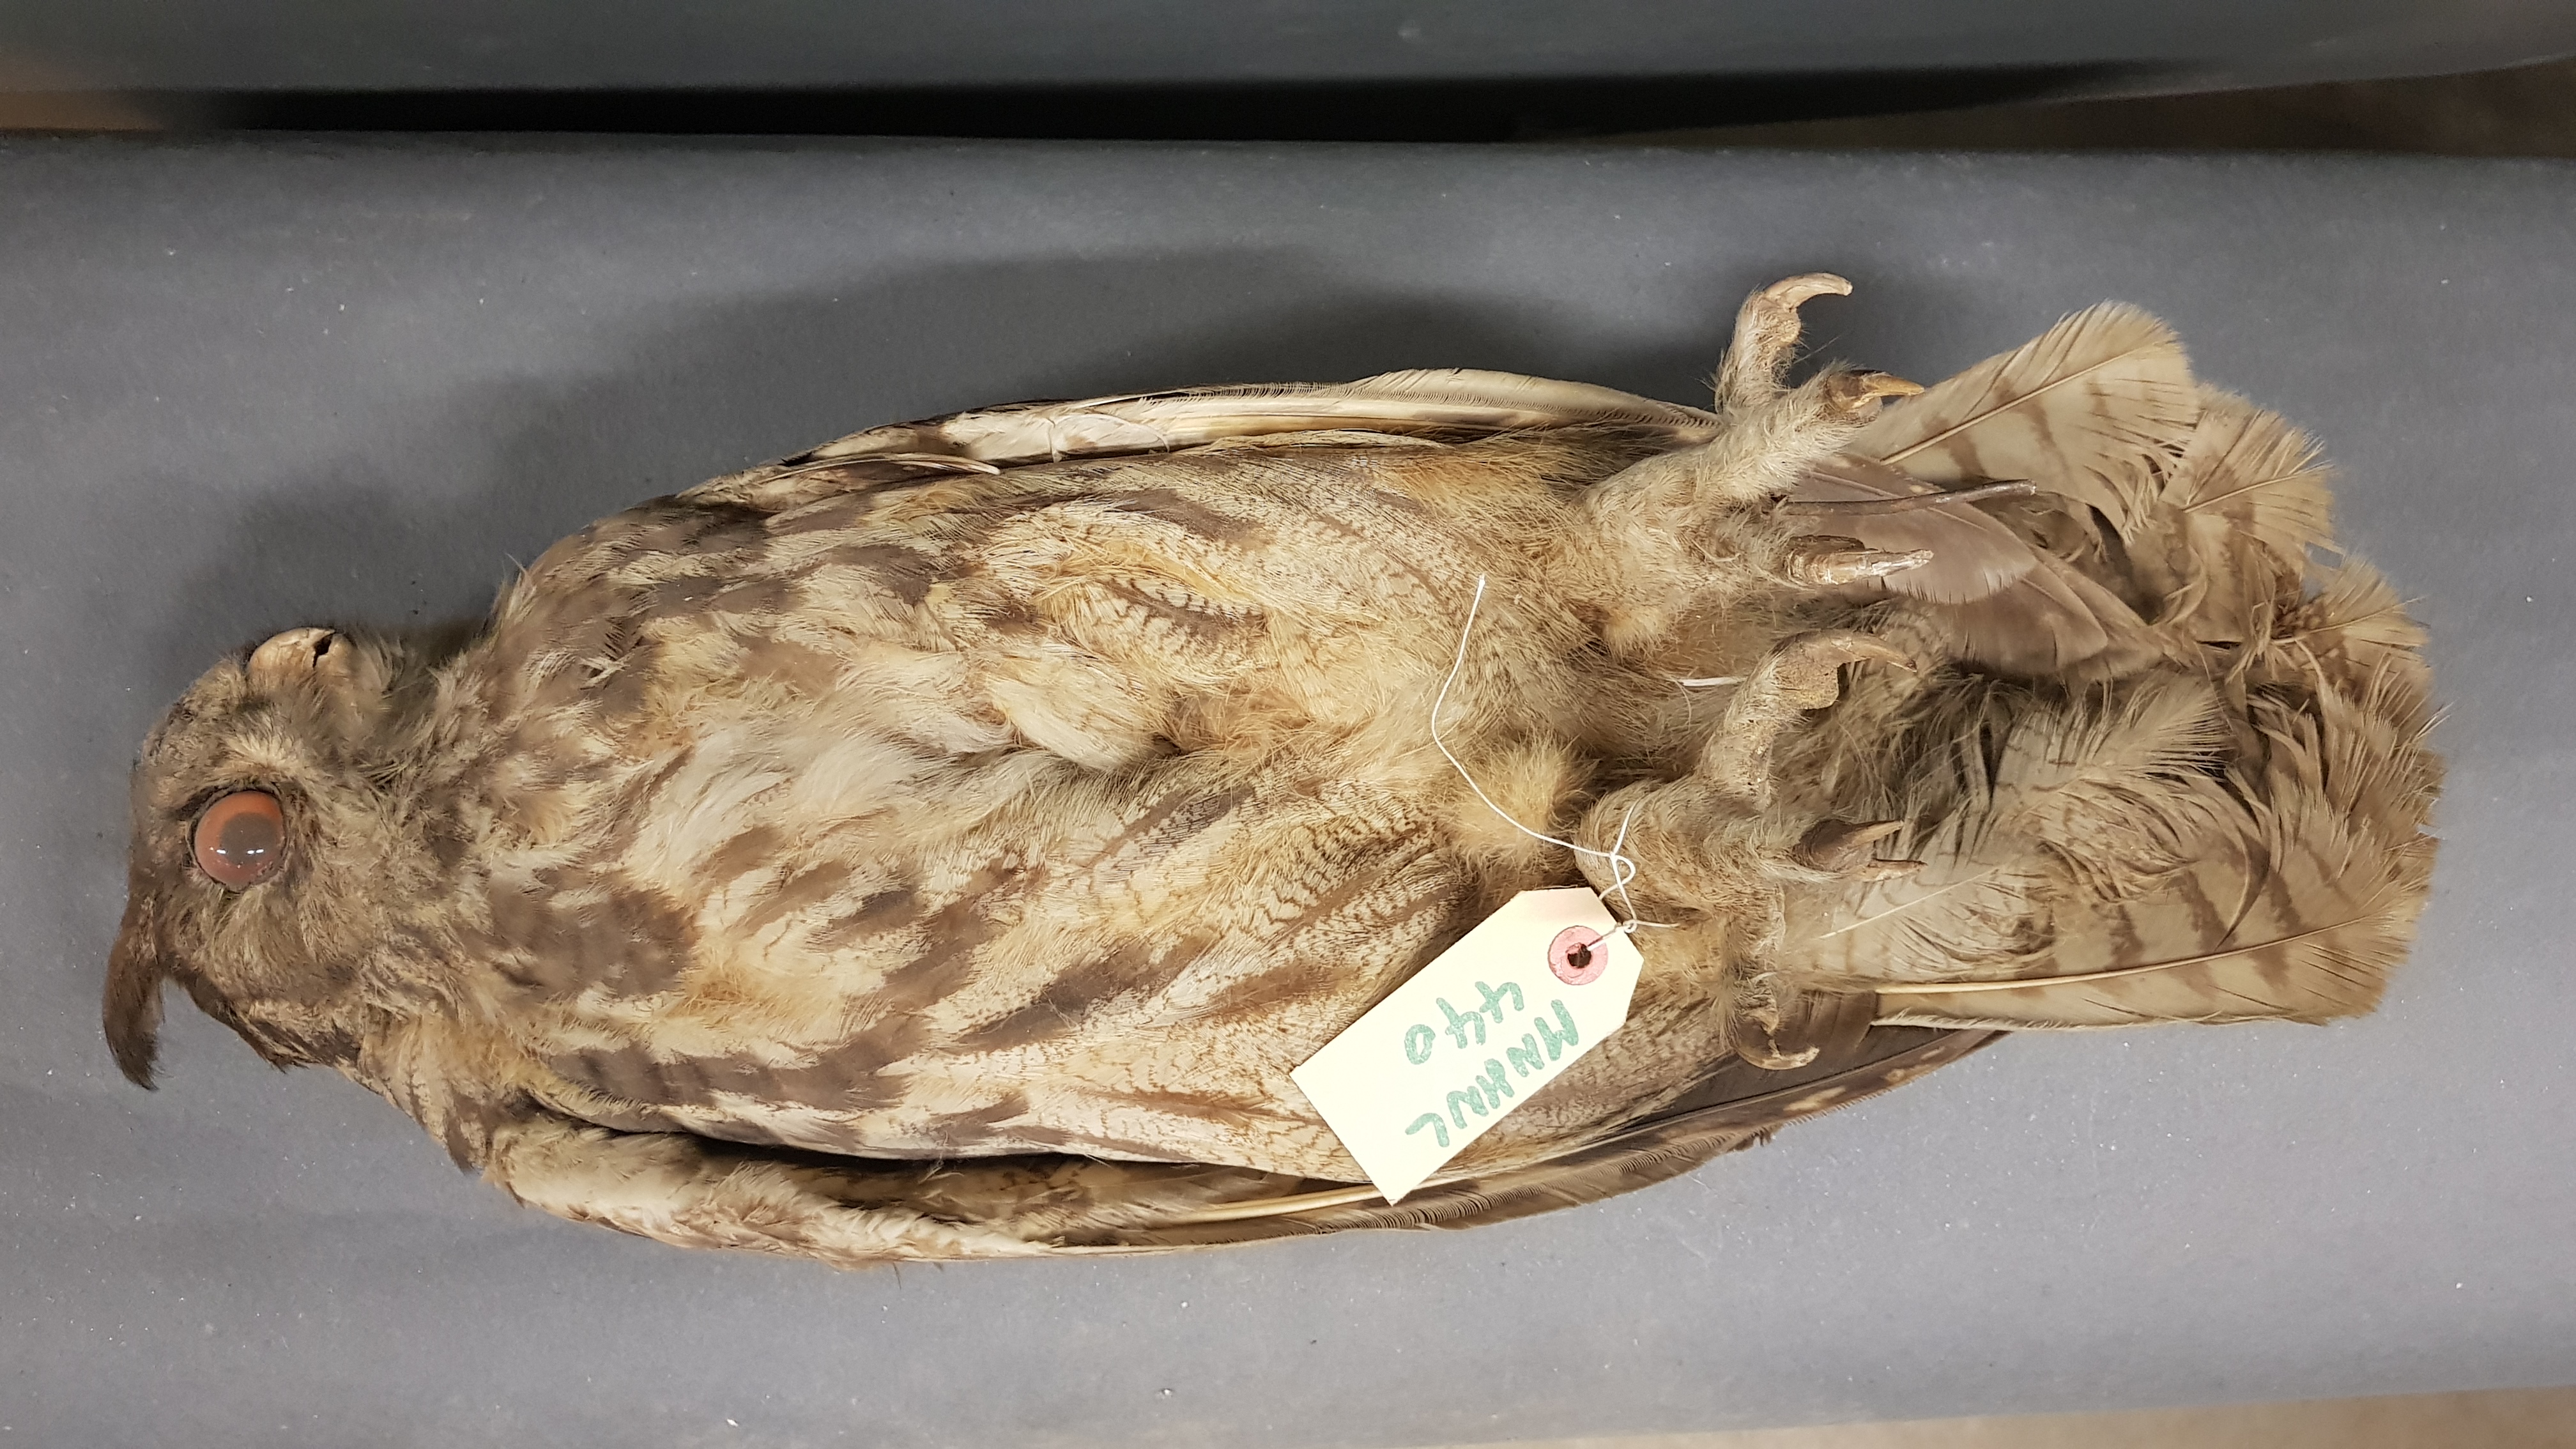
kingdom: Animalia
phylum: Chordata
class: Aves
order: Strigiformes
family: Strigidae
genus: Bubo
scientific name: Bubo
